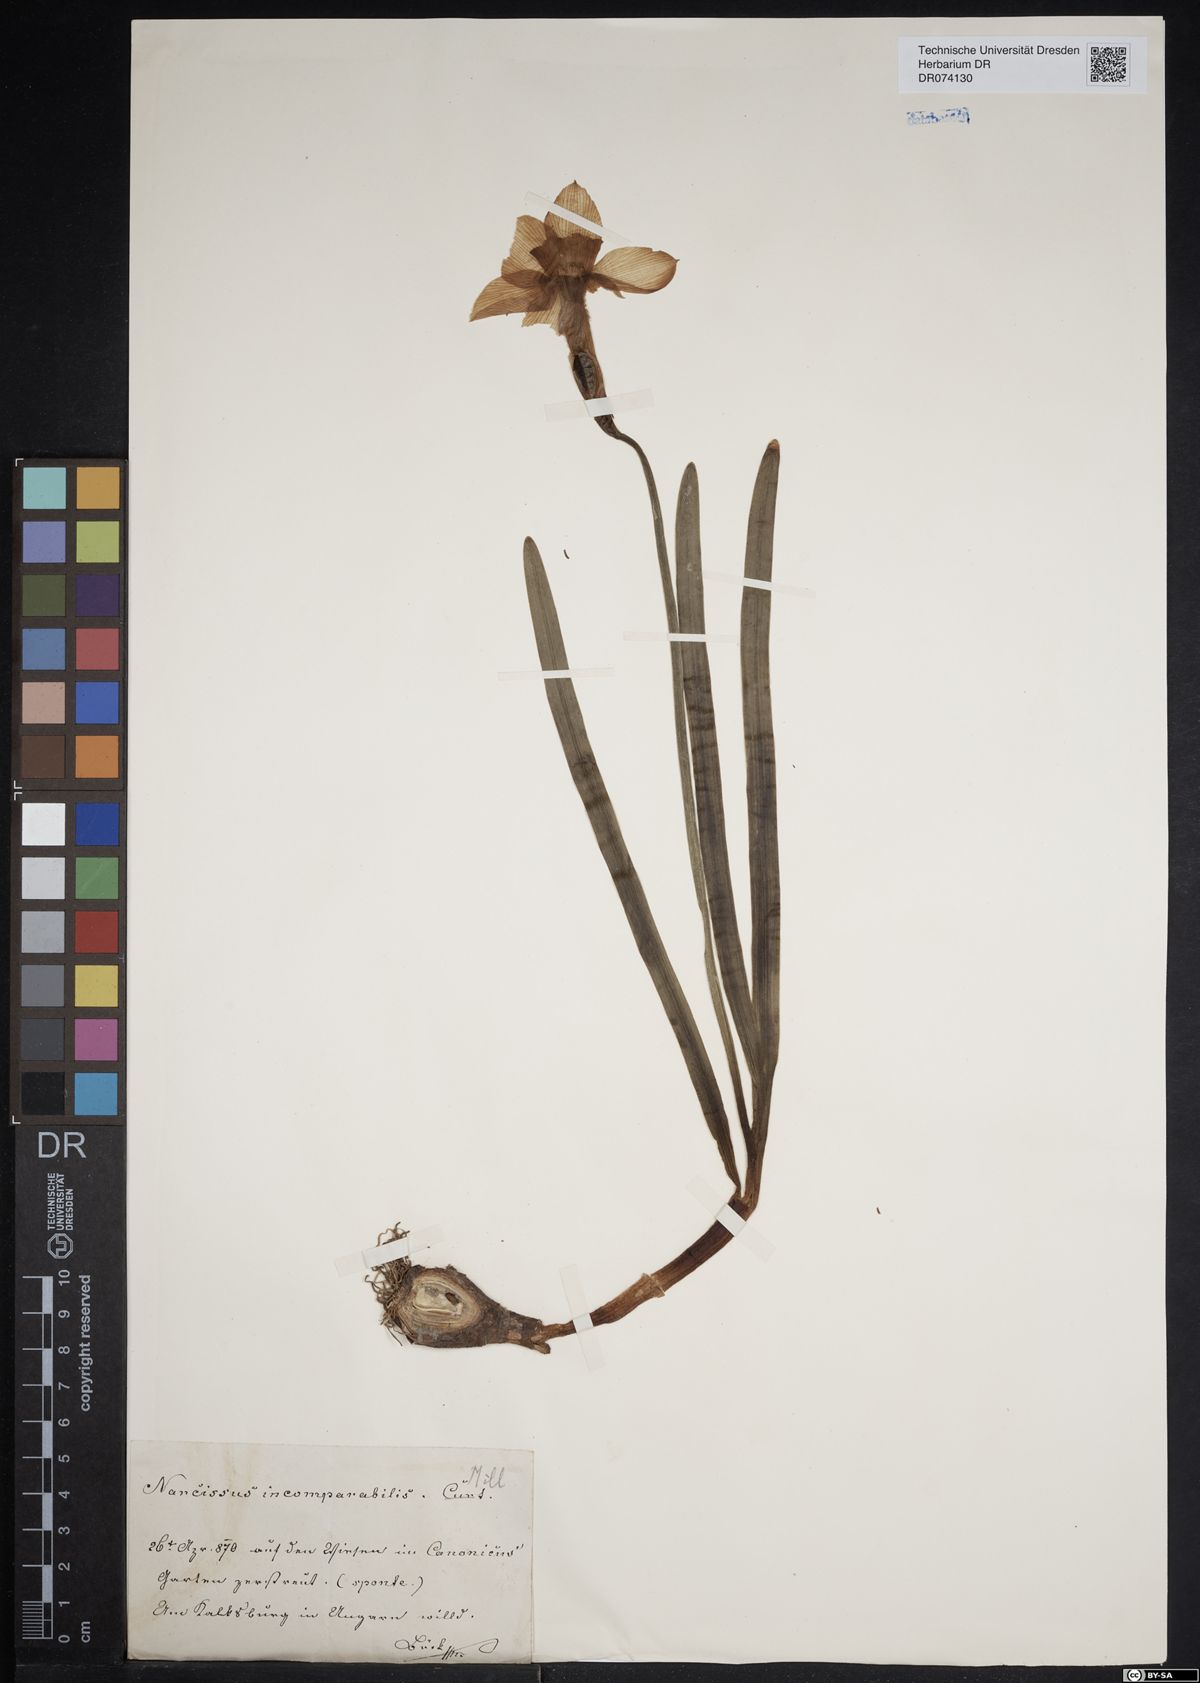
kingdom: Plantae
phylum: Tracheophyta
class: Liliopsida
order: Asparagales
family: Amaryllidaceae
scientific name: Amaryllidaceae
